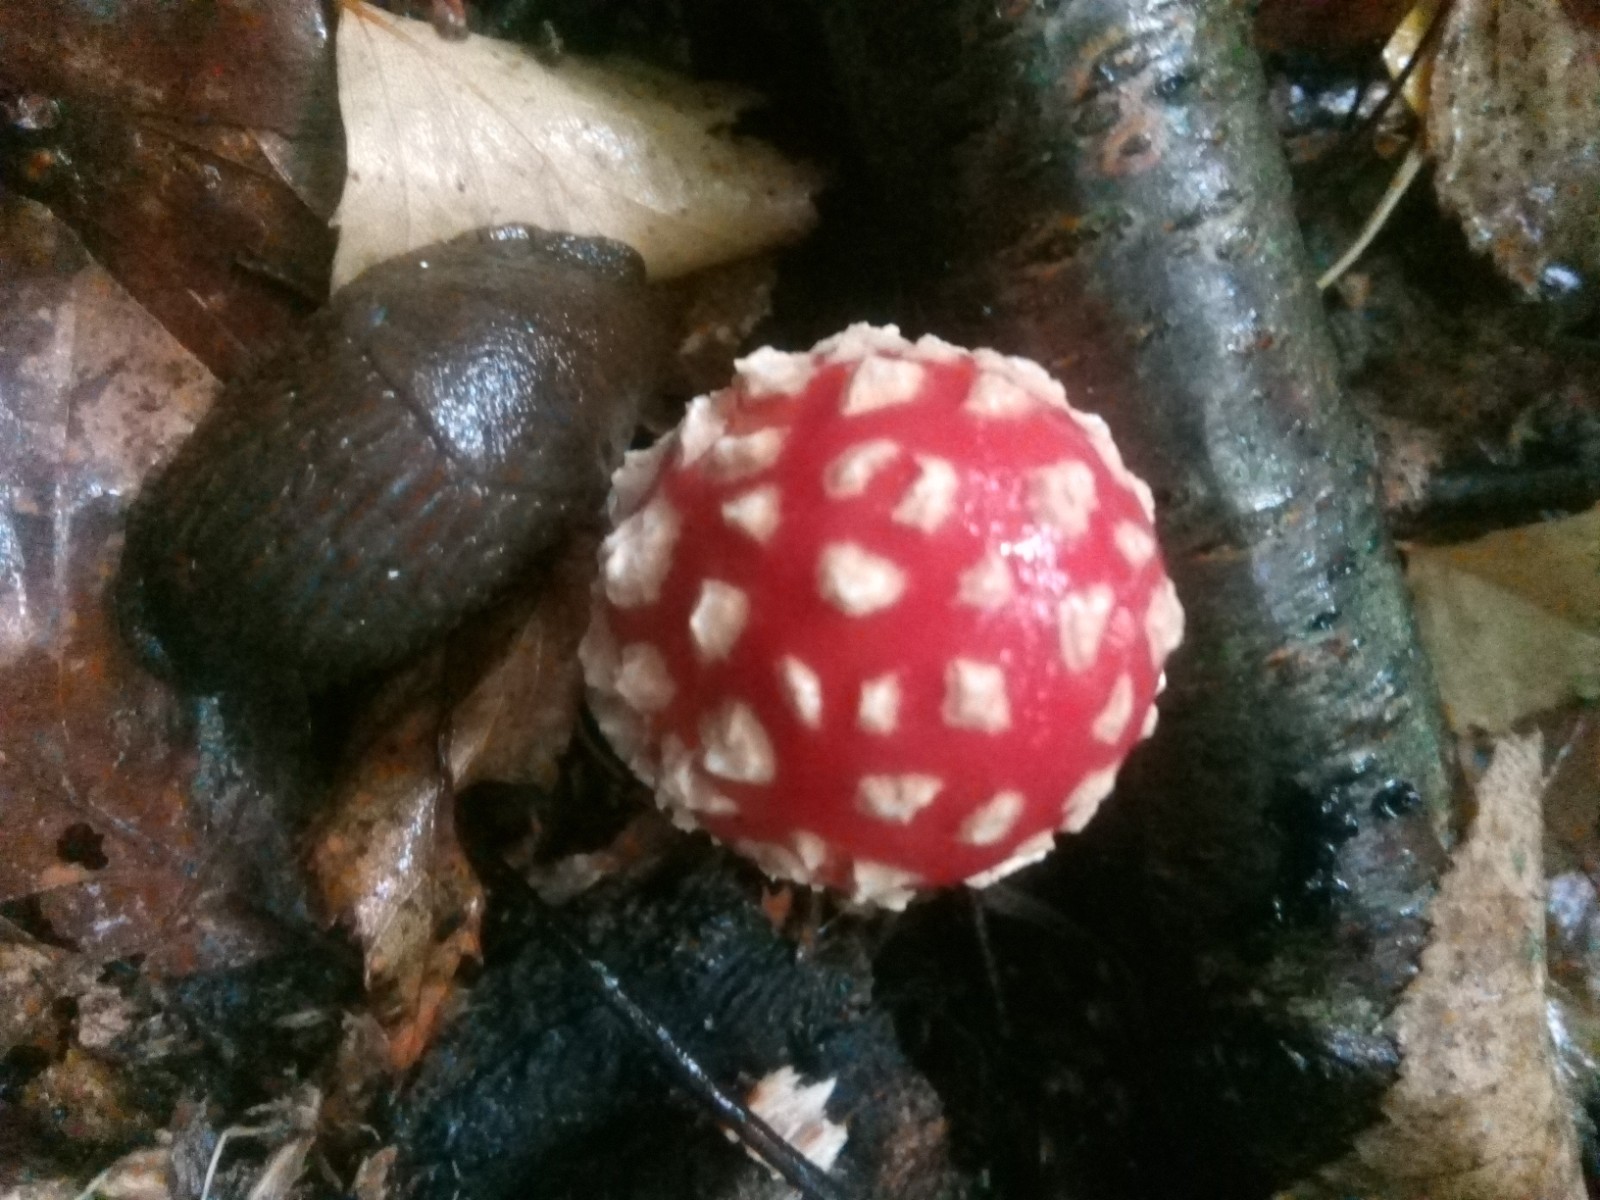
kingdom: Fungi
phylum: Basidiomycota
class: Agaricomycetes
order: Agaricales
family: Amanitaceae
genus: Amanita
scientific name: Amanita muscaria
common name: rød fluesvamp
